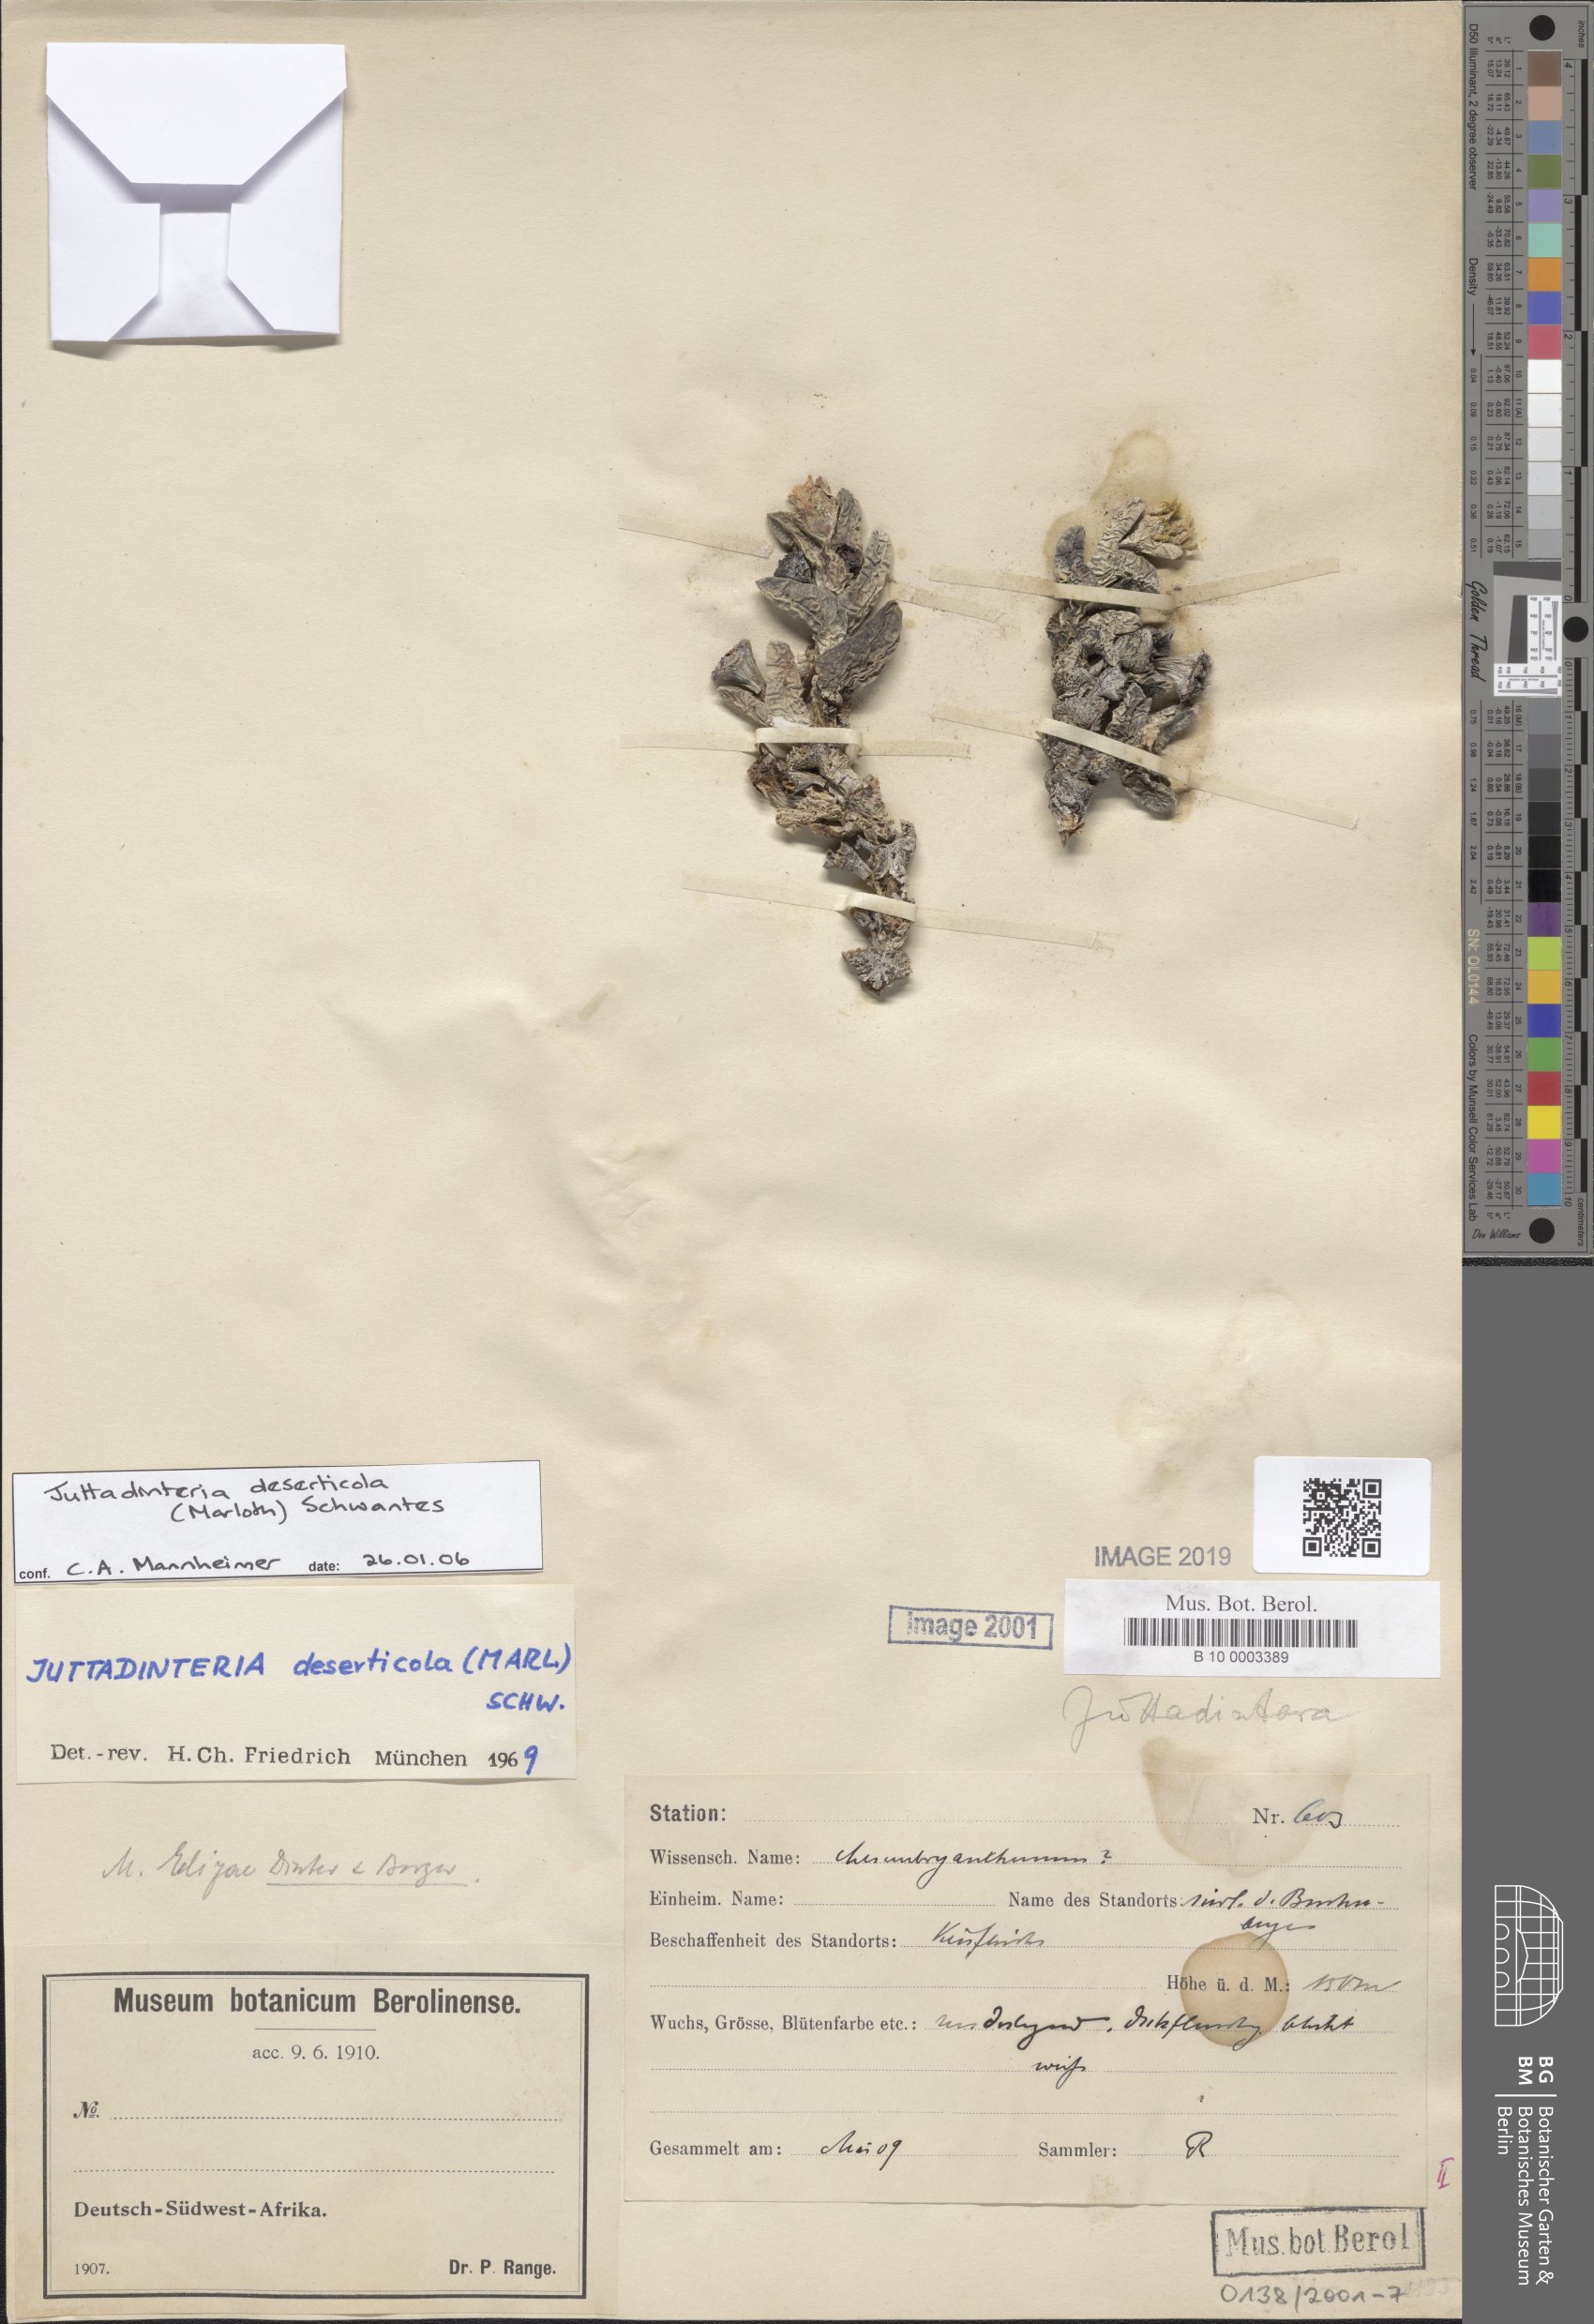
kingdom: Plantae
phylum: Tracheophyta
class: Magnoliopsida
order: Caryophyllales
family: Aizoaceae
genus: Juttadinteria
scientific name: Juttadinteria deserticola
